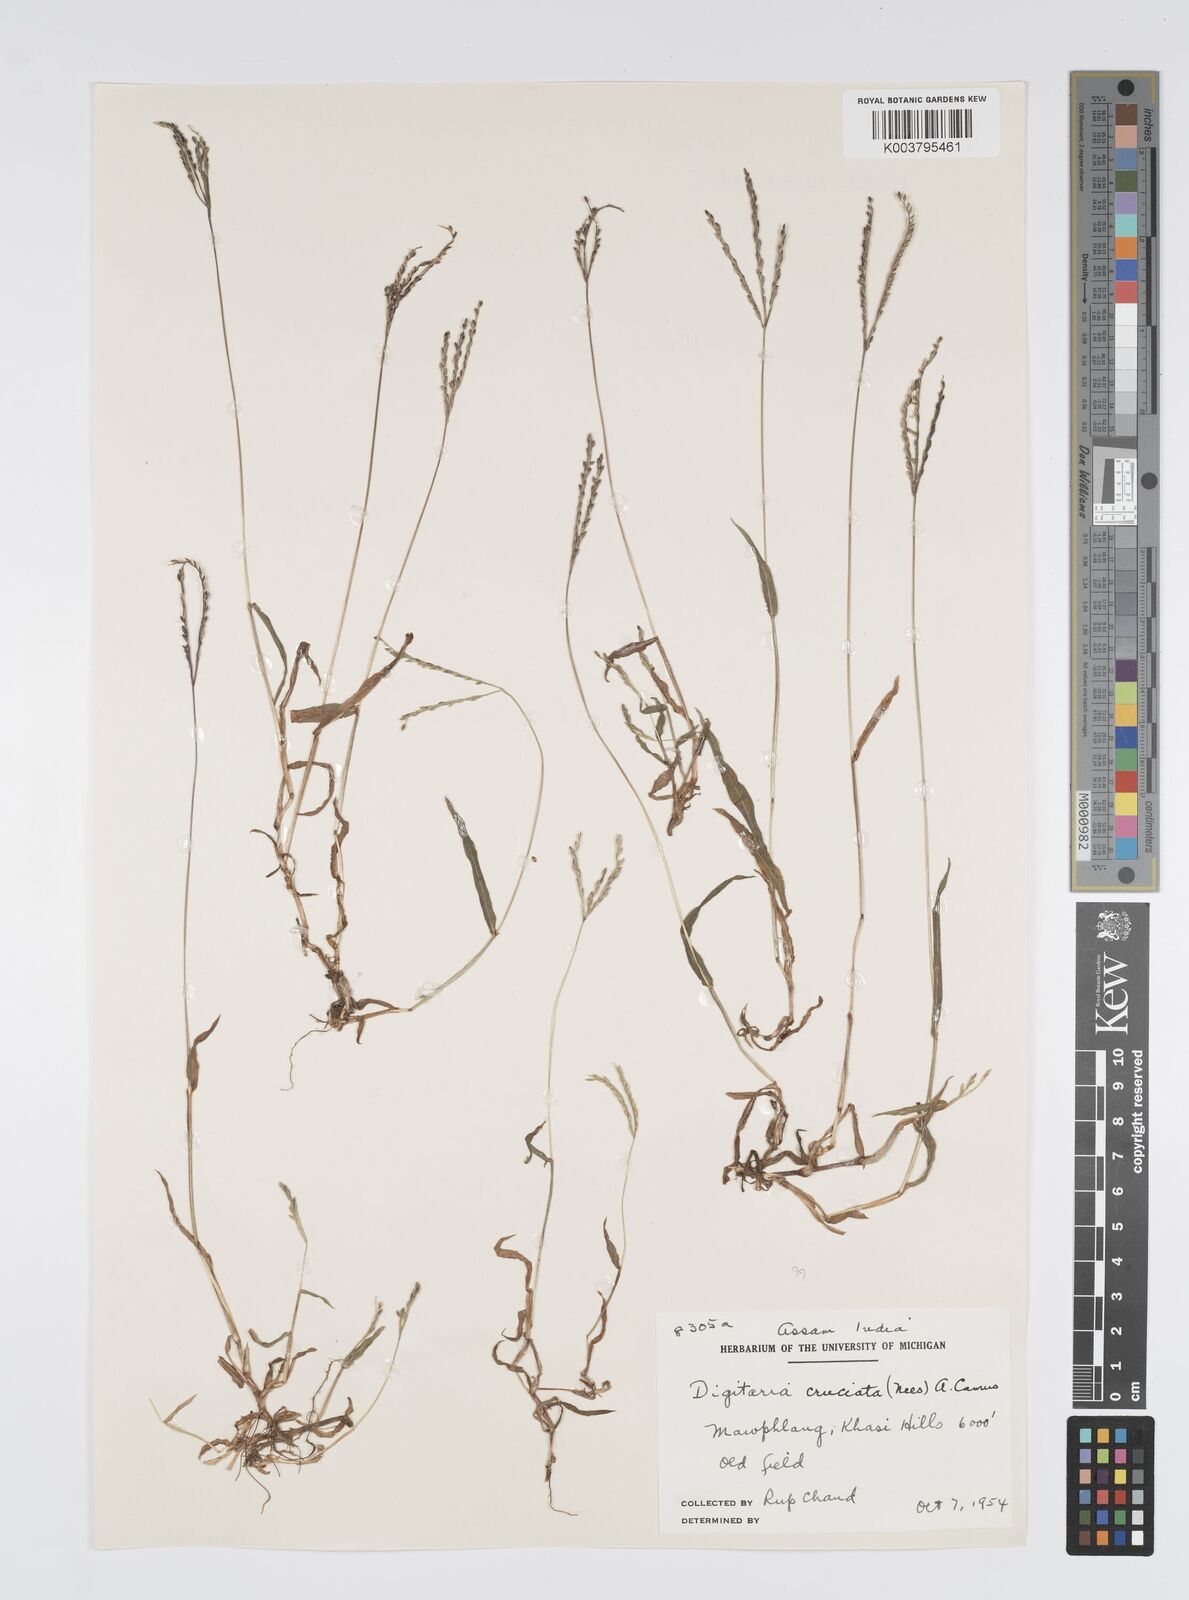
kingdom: Plantae
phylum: Tracheophyta
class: Liliopsida
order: Poales
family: Poaceae
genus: Digitaria
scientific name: Digitaria cruciata
